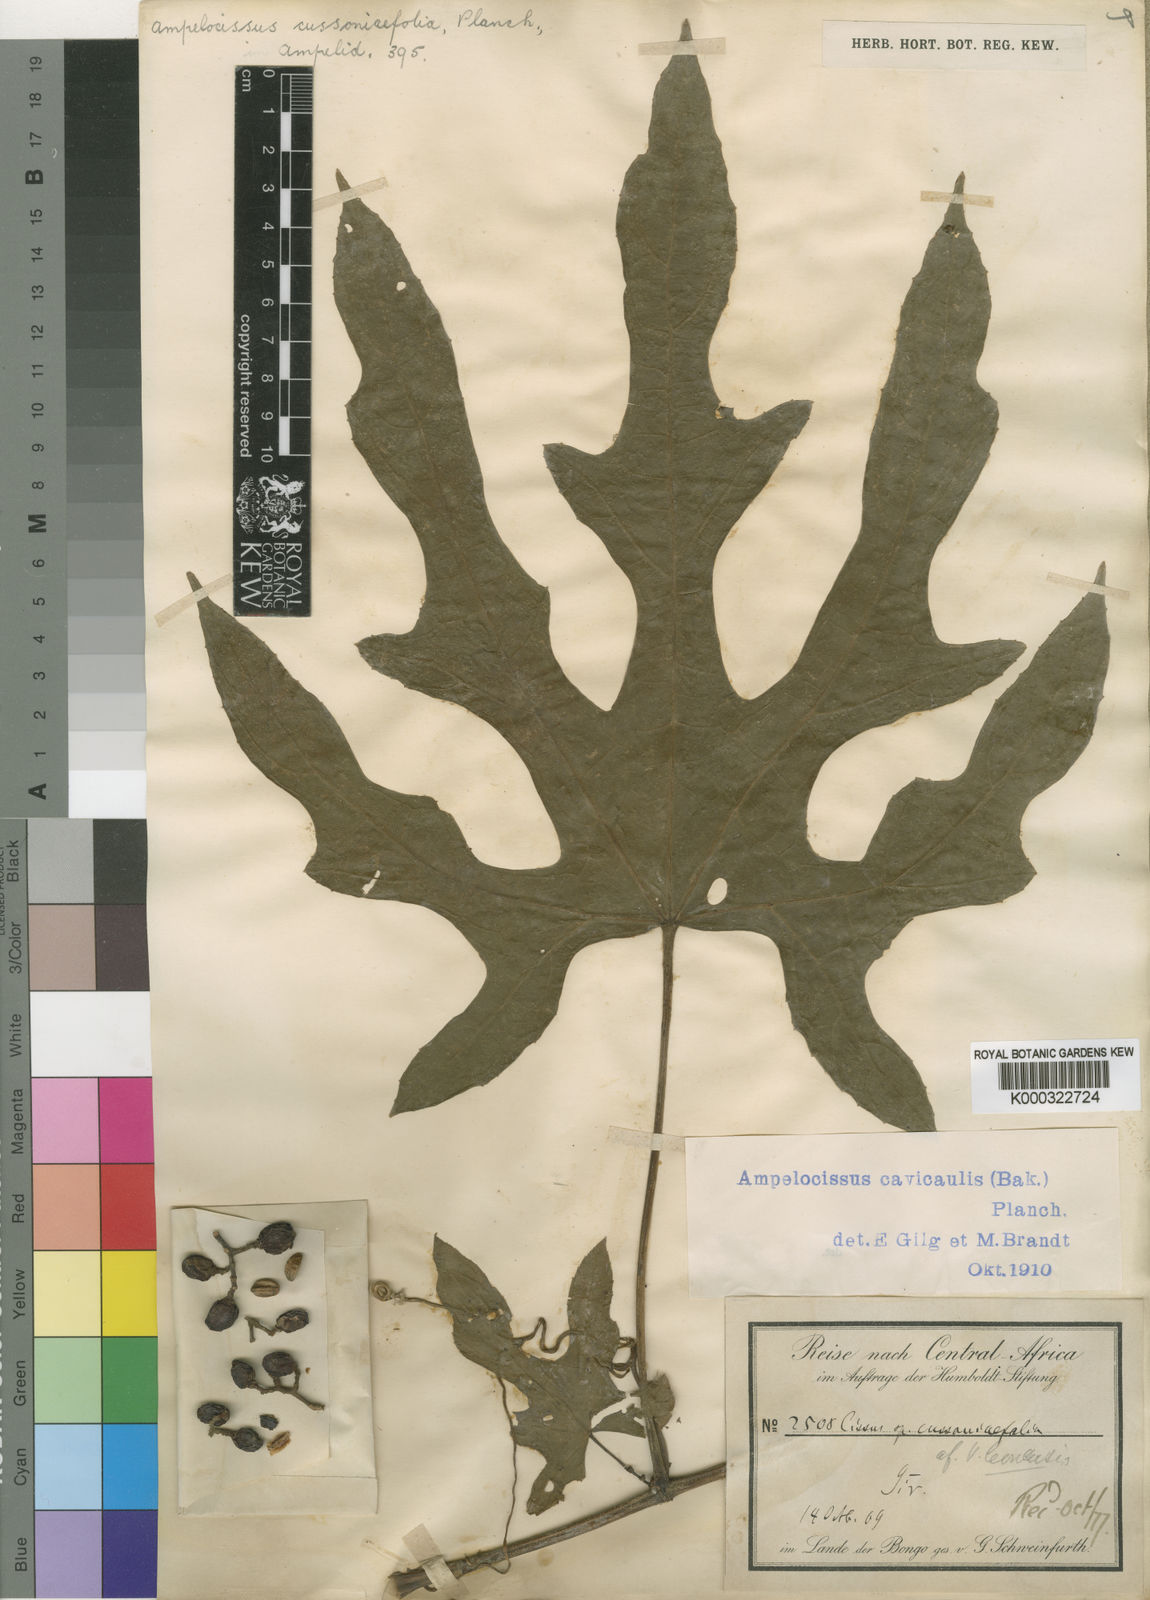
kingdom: Plantae
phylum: Tracheophyta
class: Magnoliopsida
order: Vitales
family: Vitaceae
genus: Ampelocissus
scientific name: Ampelocissus abyssinica
